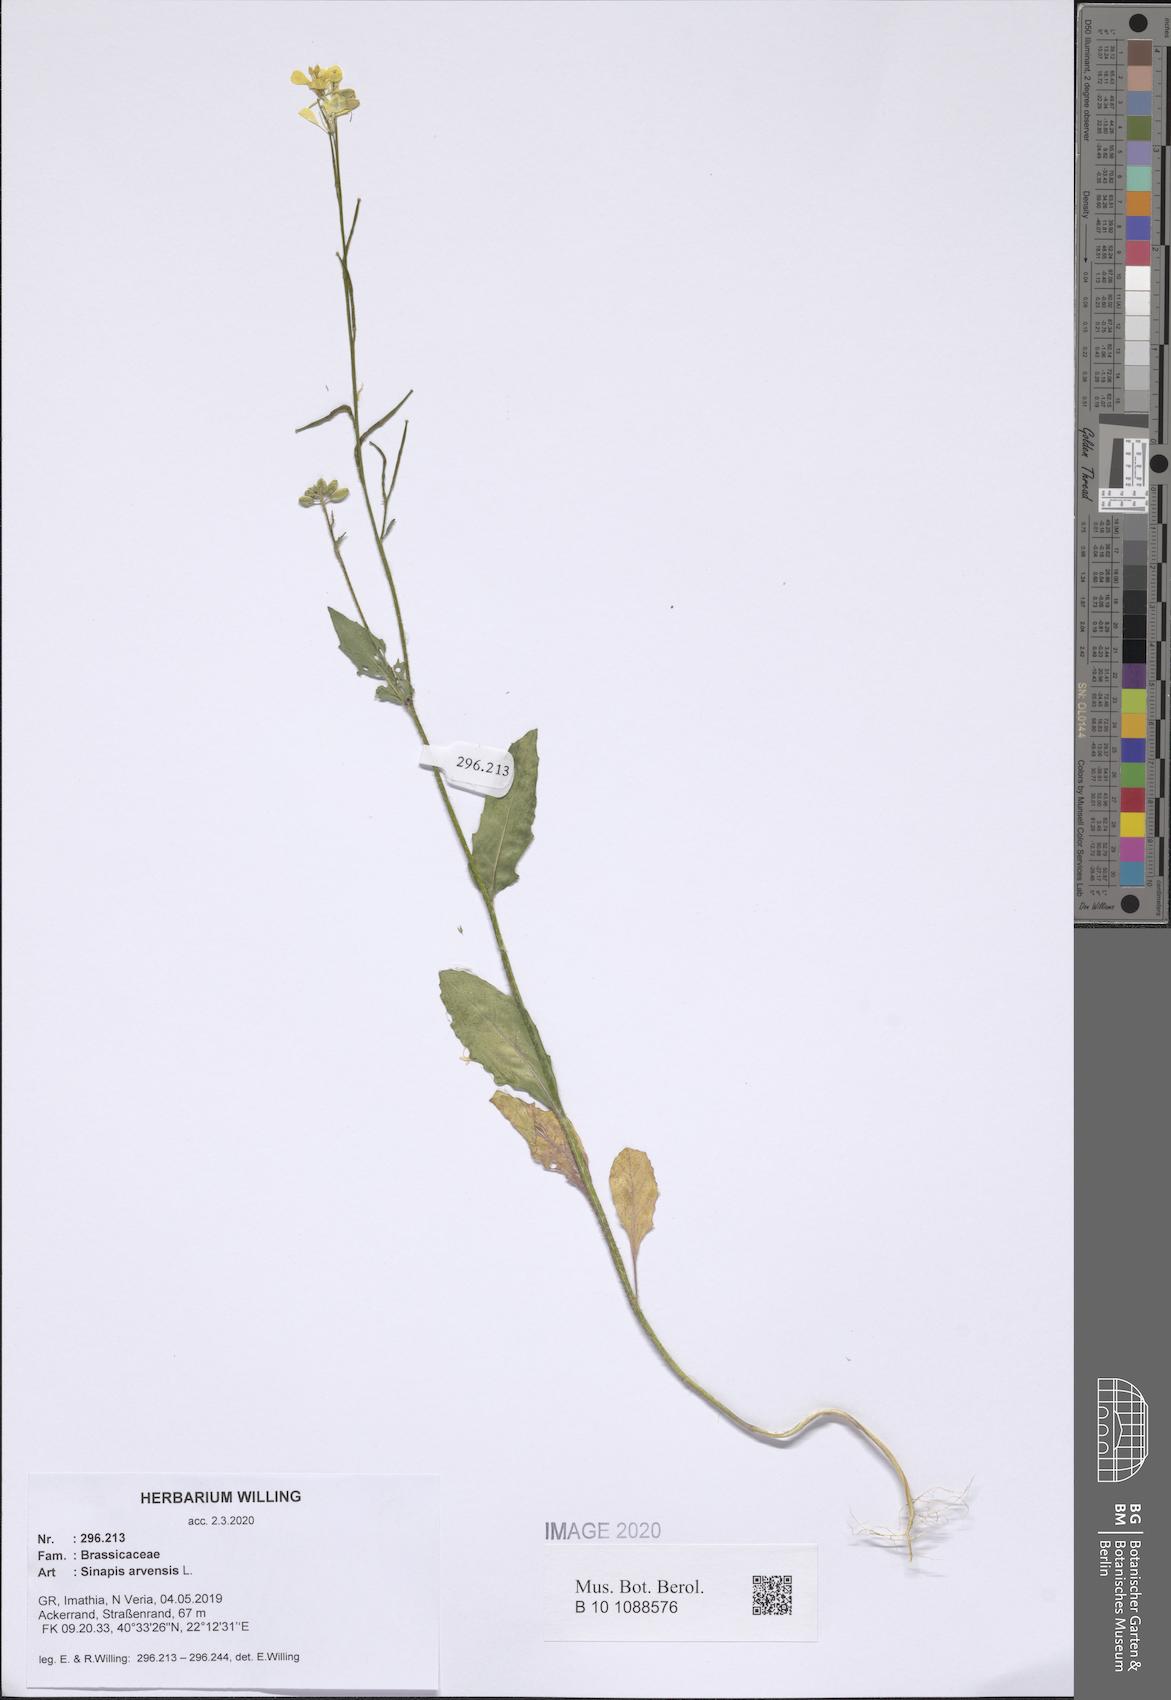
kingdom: Plantae
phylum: Tracheophyta
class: Magnoliopsida
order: Brassicales
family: Brassicaceae
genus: Sinapis
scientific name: Sinapis arvensis
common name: Charlock
